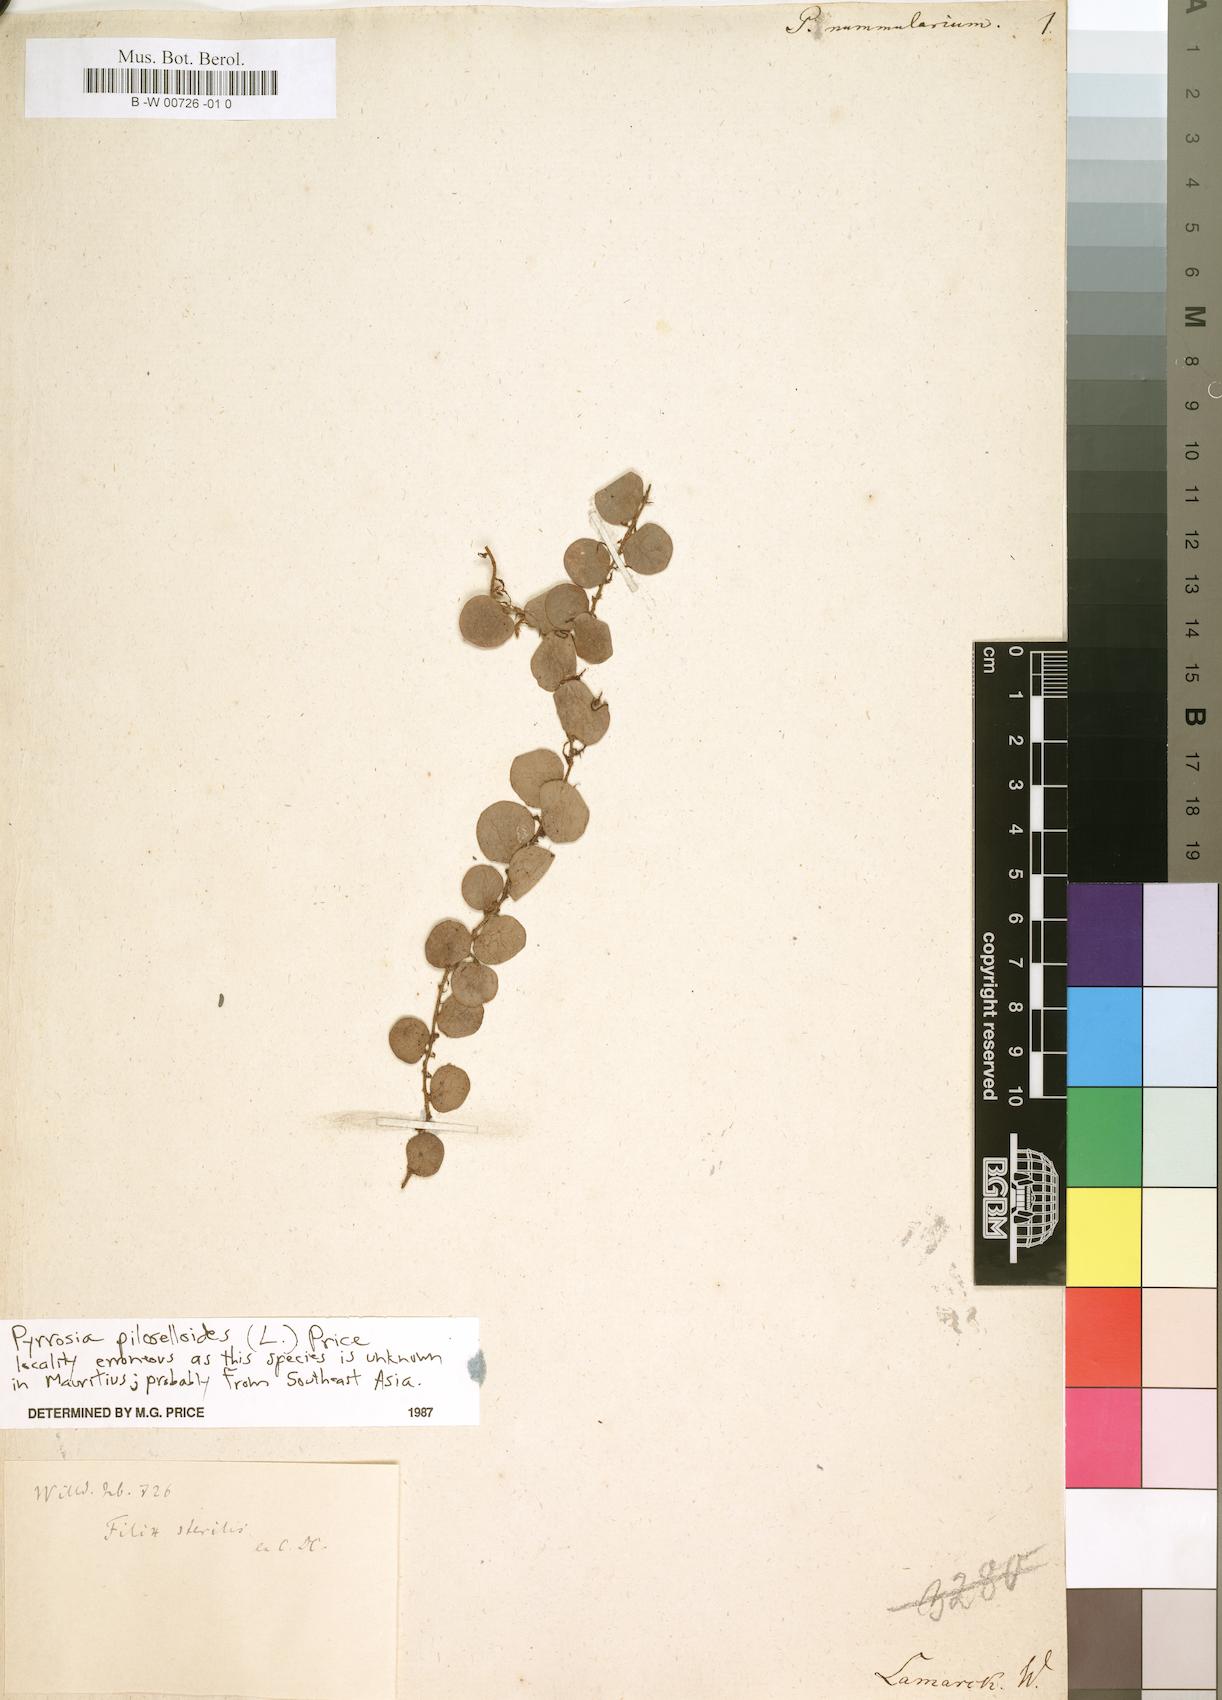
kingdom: Plantae
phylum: Tracheophyta
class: Magnoliopsida
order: Piperales
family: Piperaceae
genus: Peperomia
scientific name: Peperomia elliptica
